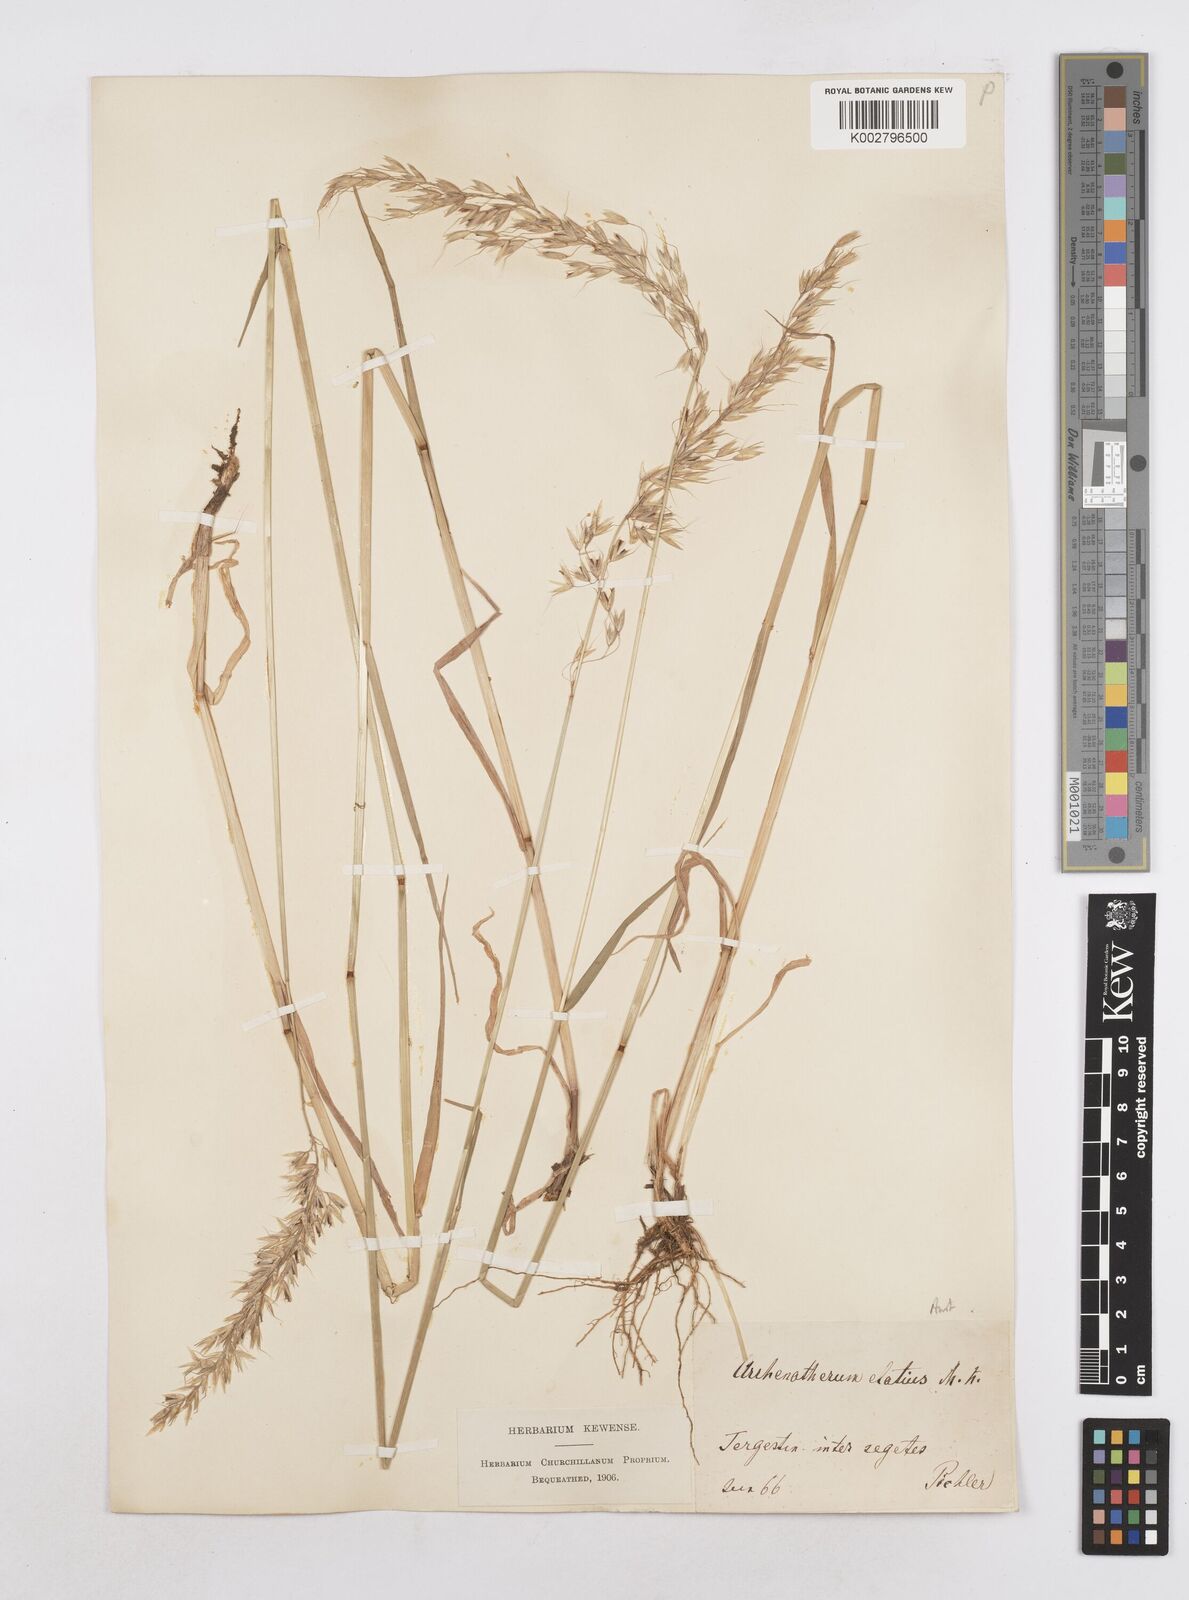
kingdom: Plantae
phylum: Tracheophyta
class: Liliopsida
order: Poales
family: Poaceae
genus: Arrhenatherum
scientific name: Arrhenatherum elatius
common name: Tall oatgrass
